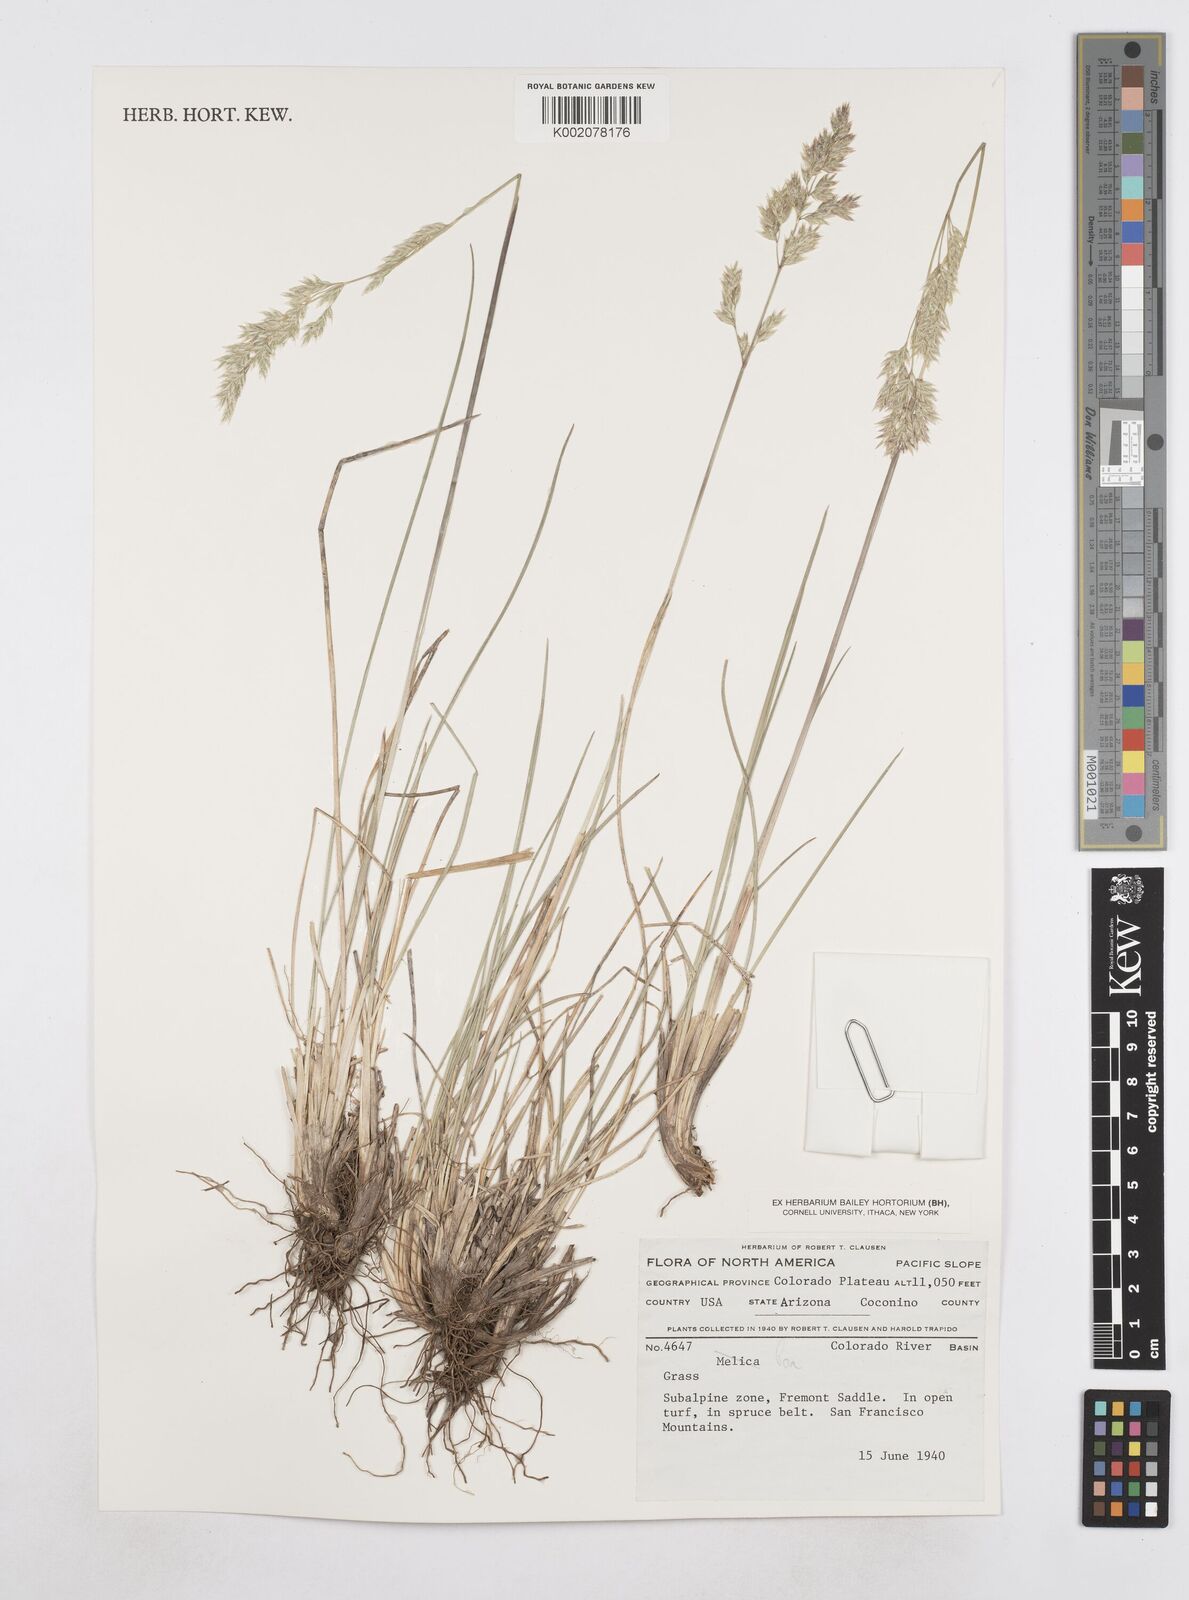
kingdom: Plantae
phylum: Tracheophyta
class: Liliopsida
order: Poales
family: Poaceae
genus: Poa
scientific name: Poa
